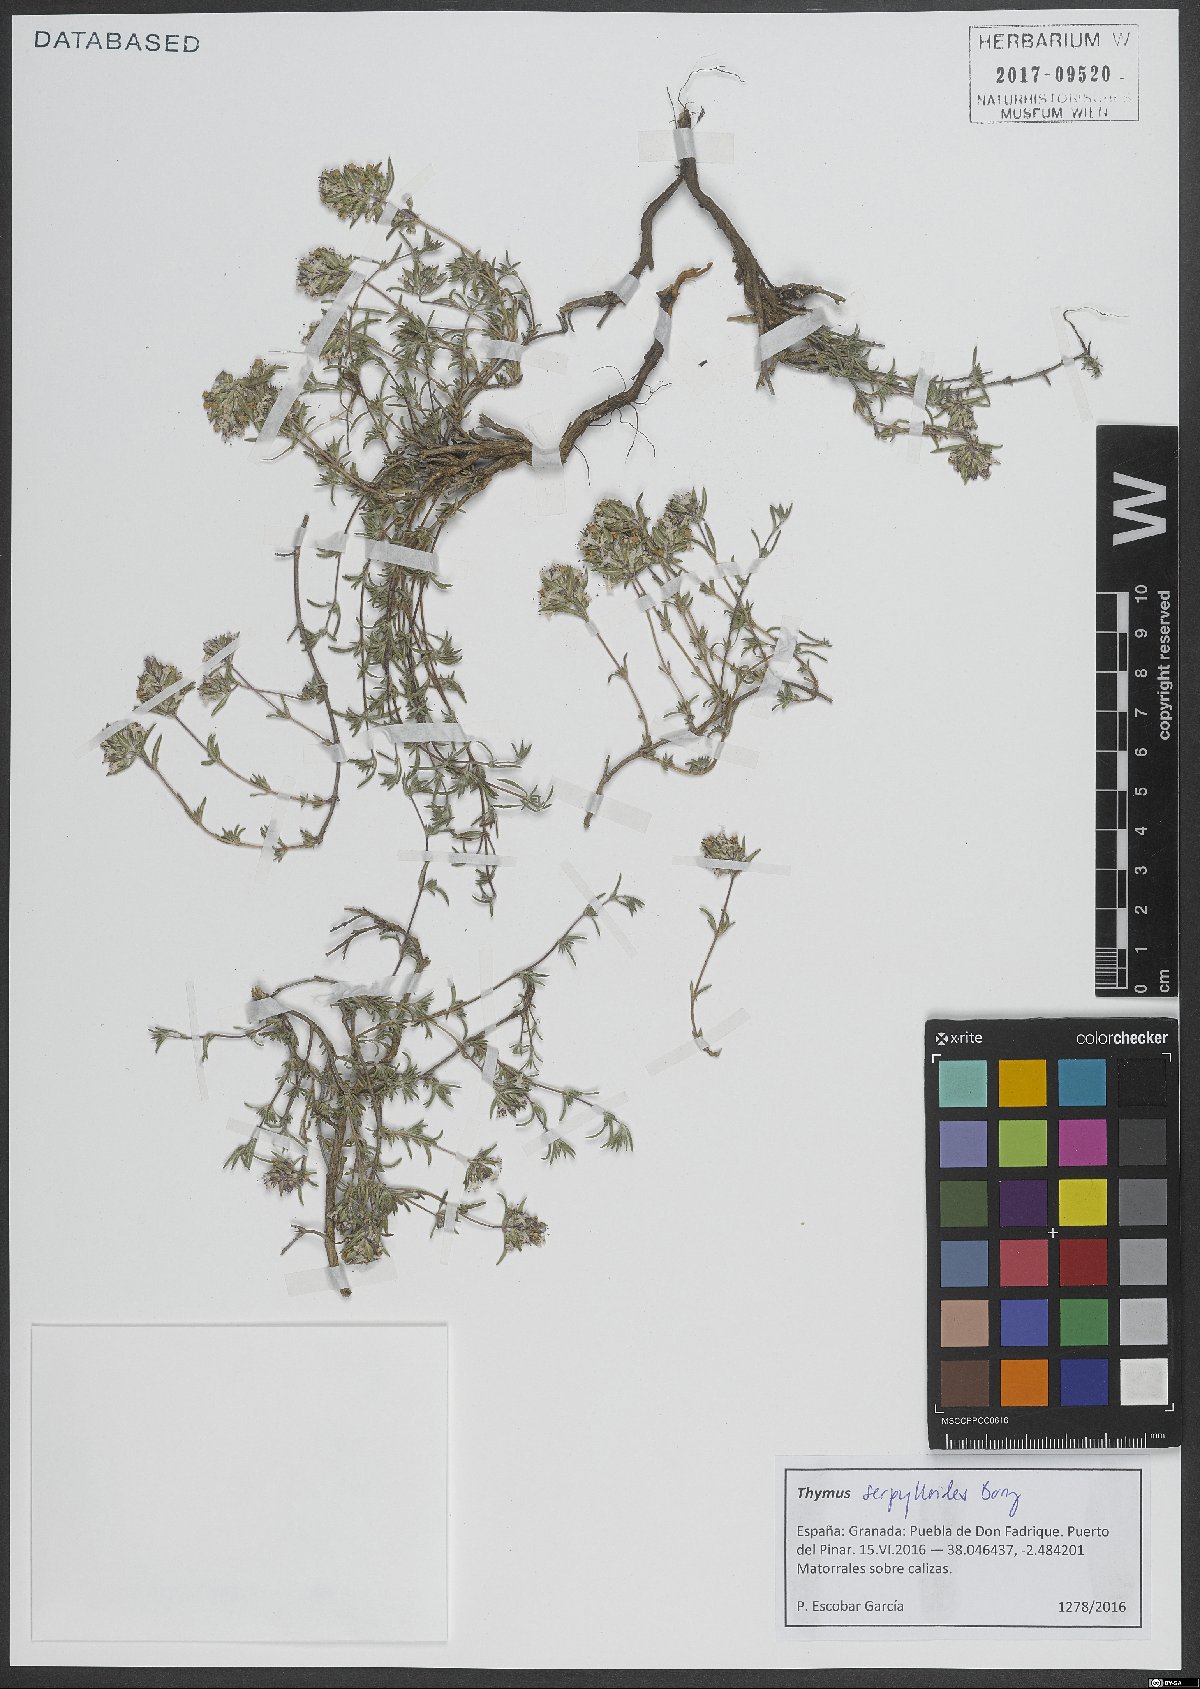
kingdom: Plantae
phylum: Tracheophyta
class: Magnoliopsida
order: Lamiales
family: Lamiaceae
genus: Thymus
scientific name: Thymus serpylloides
